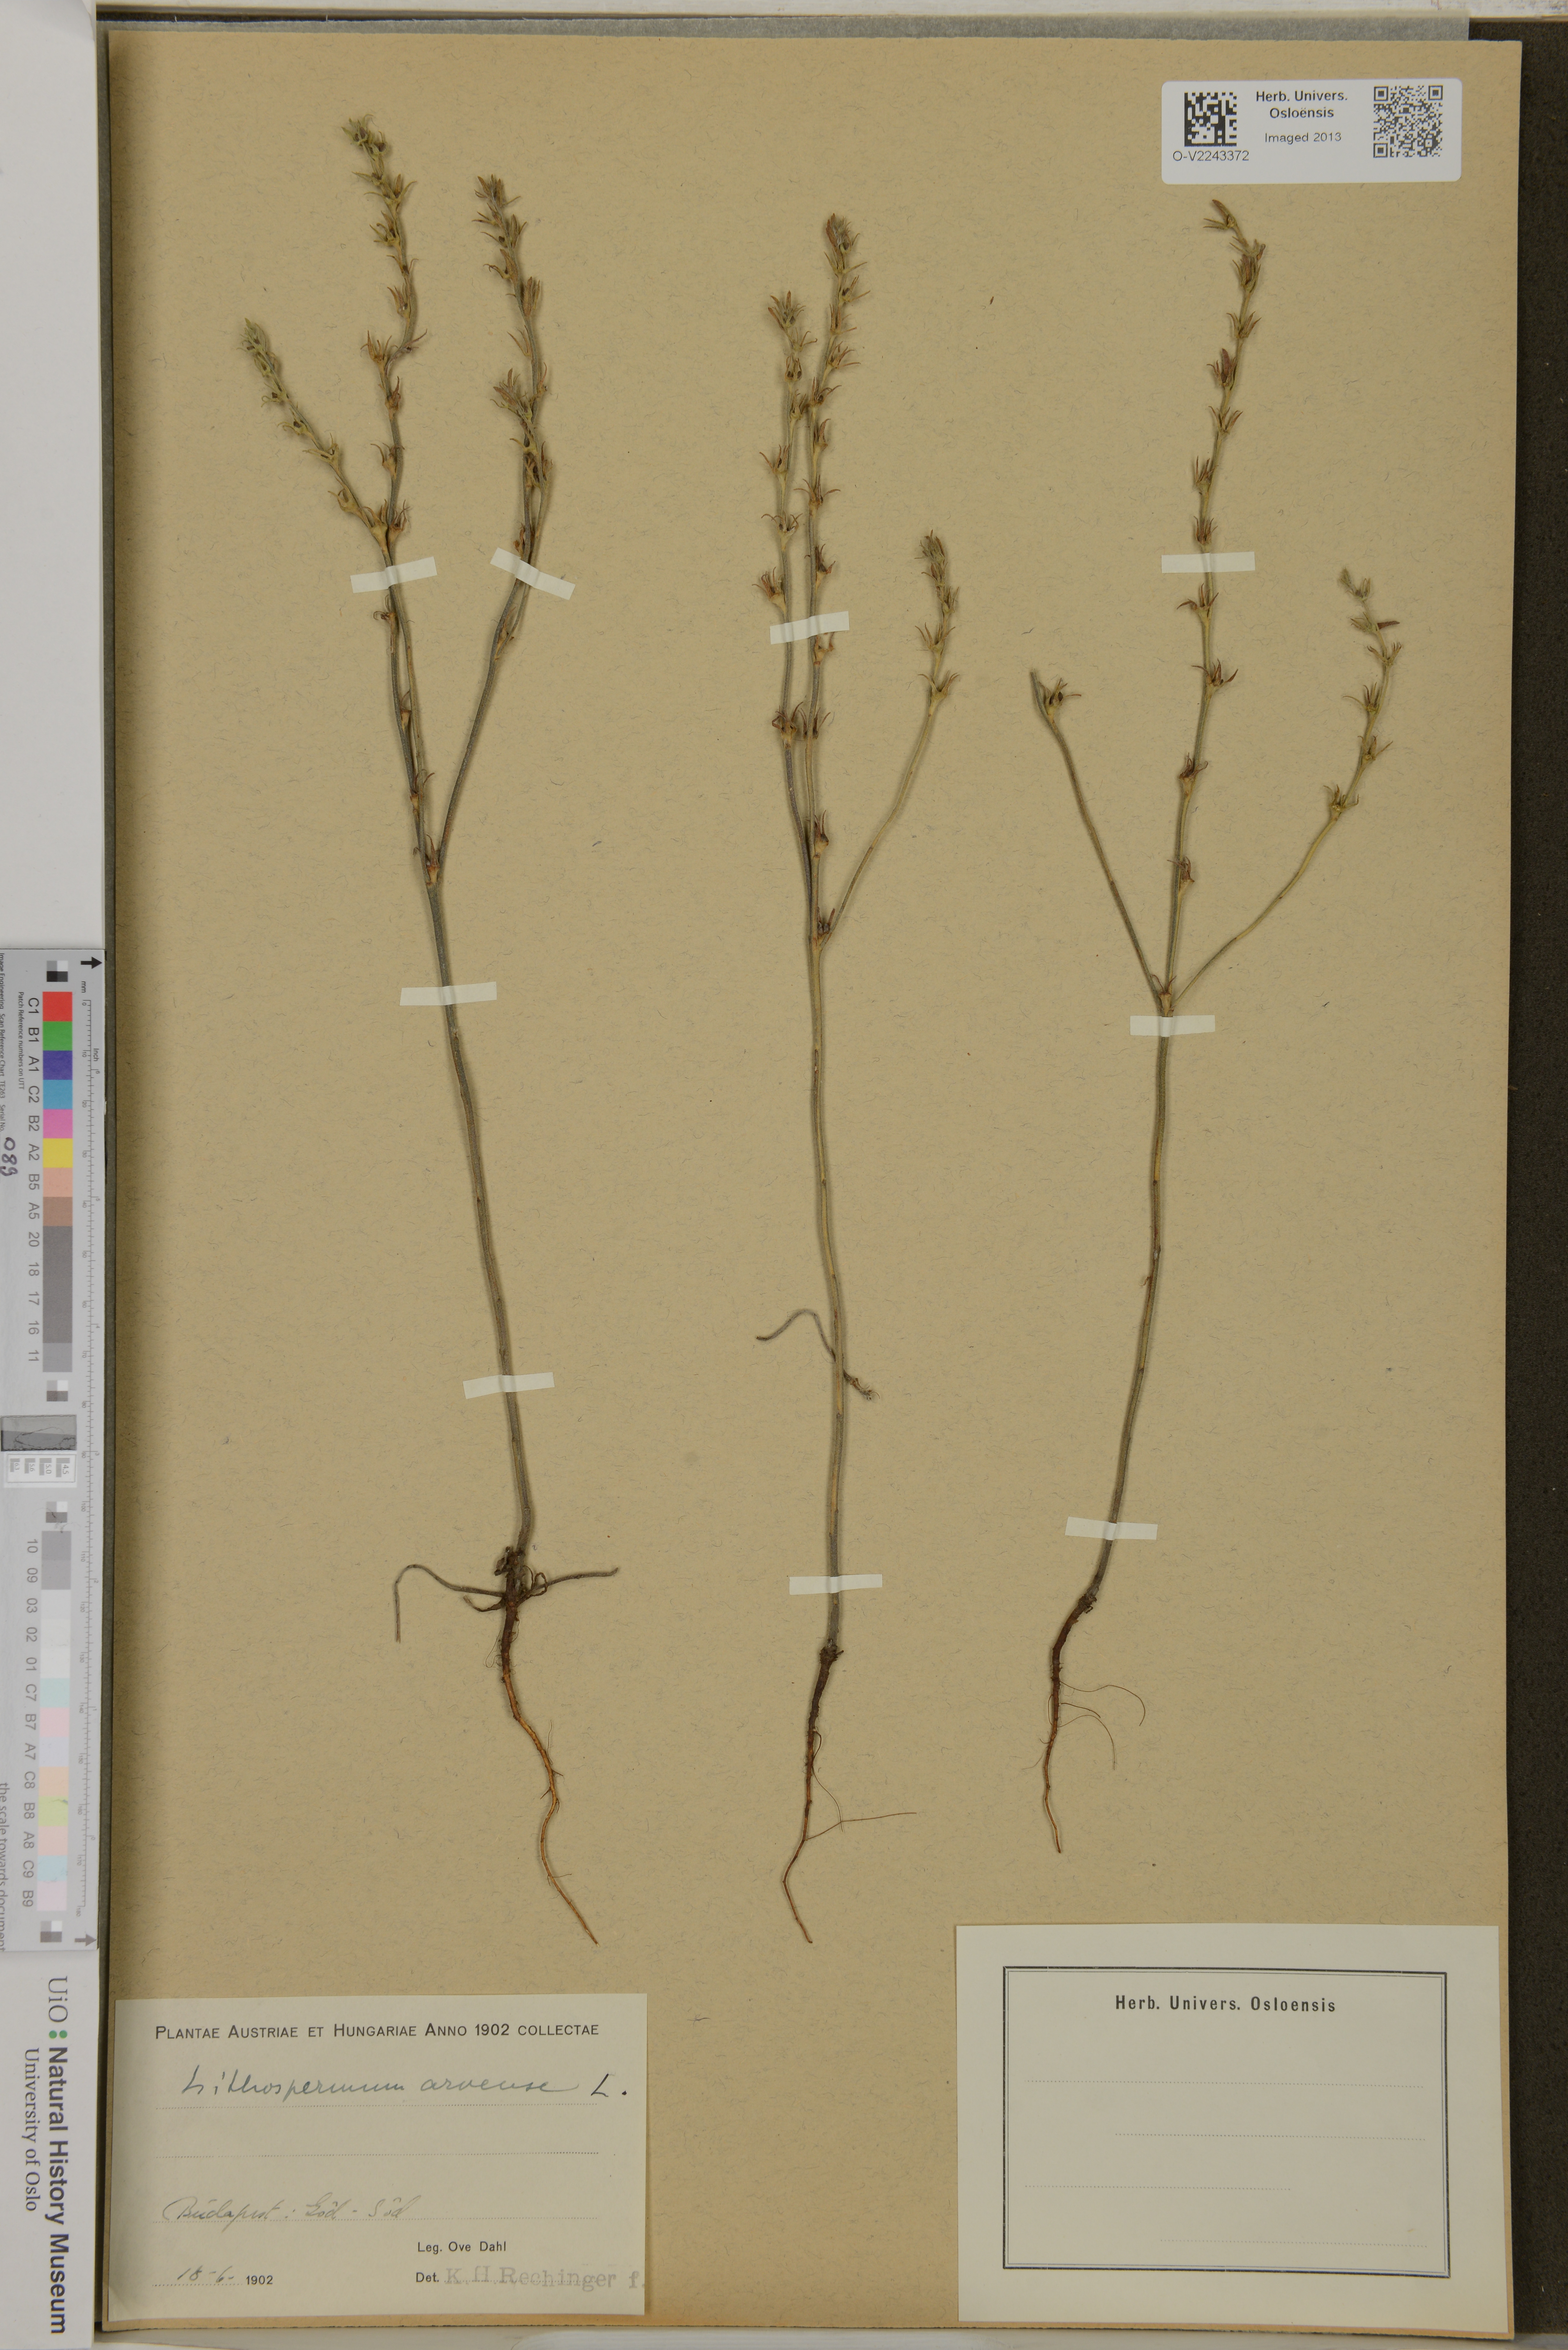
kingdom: Plantae
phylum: Tracheophyta
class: Magnoliopsida
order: Boraginales
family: Boraginaceae
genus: Buglossoides
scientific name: Buglossoides arvensis
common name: Corn gromwell
